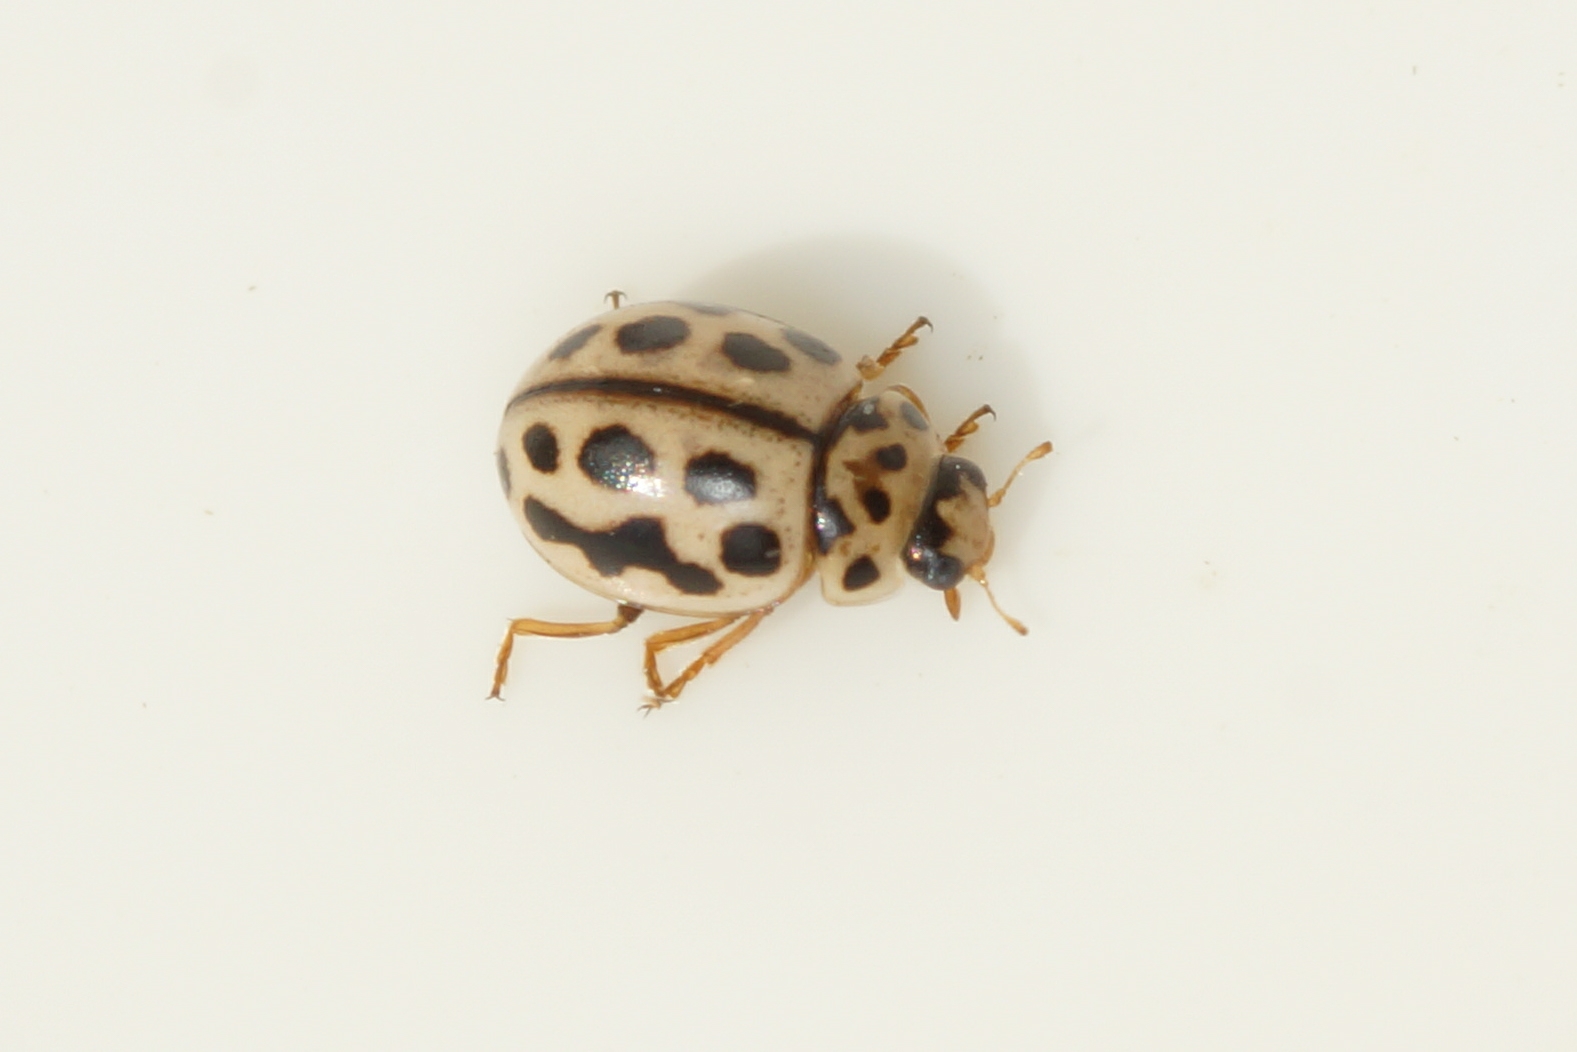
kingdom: Animalia
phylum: Arthropoda
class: Insecta
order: Coleoptera
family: Coccinellidae
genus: Tytthaspis
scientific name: Tytthaspis sedecimpunctata
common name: Sekstenprikket mariehøne
